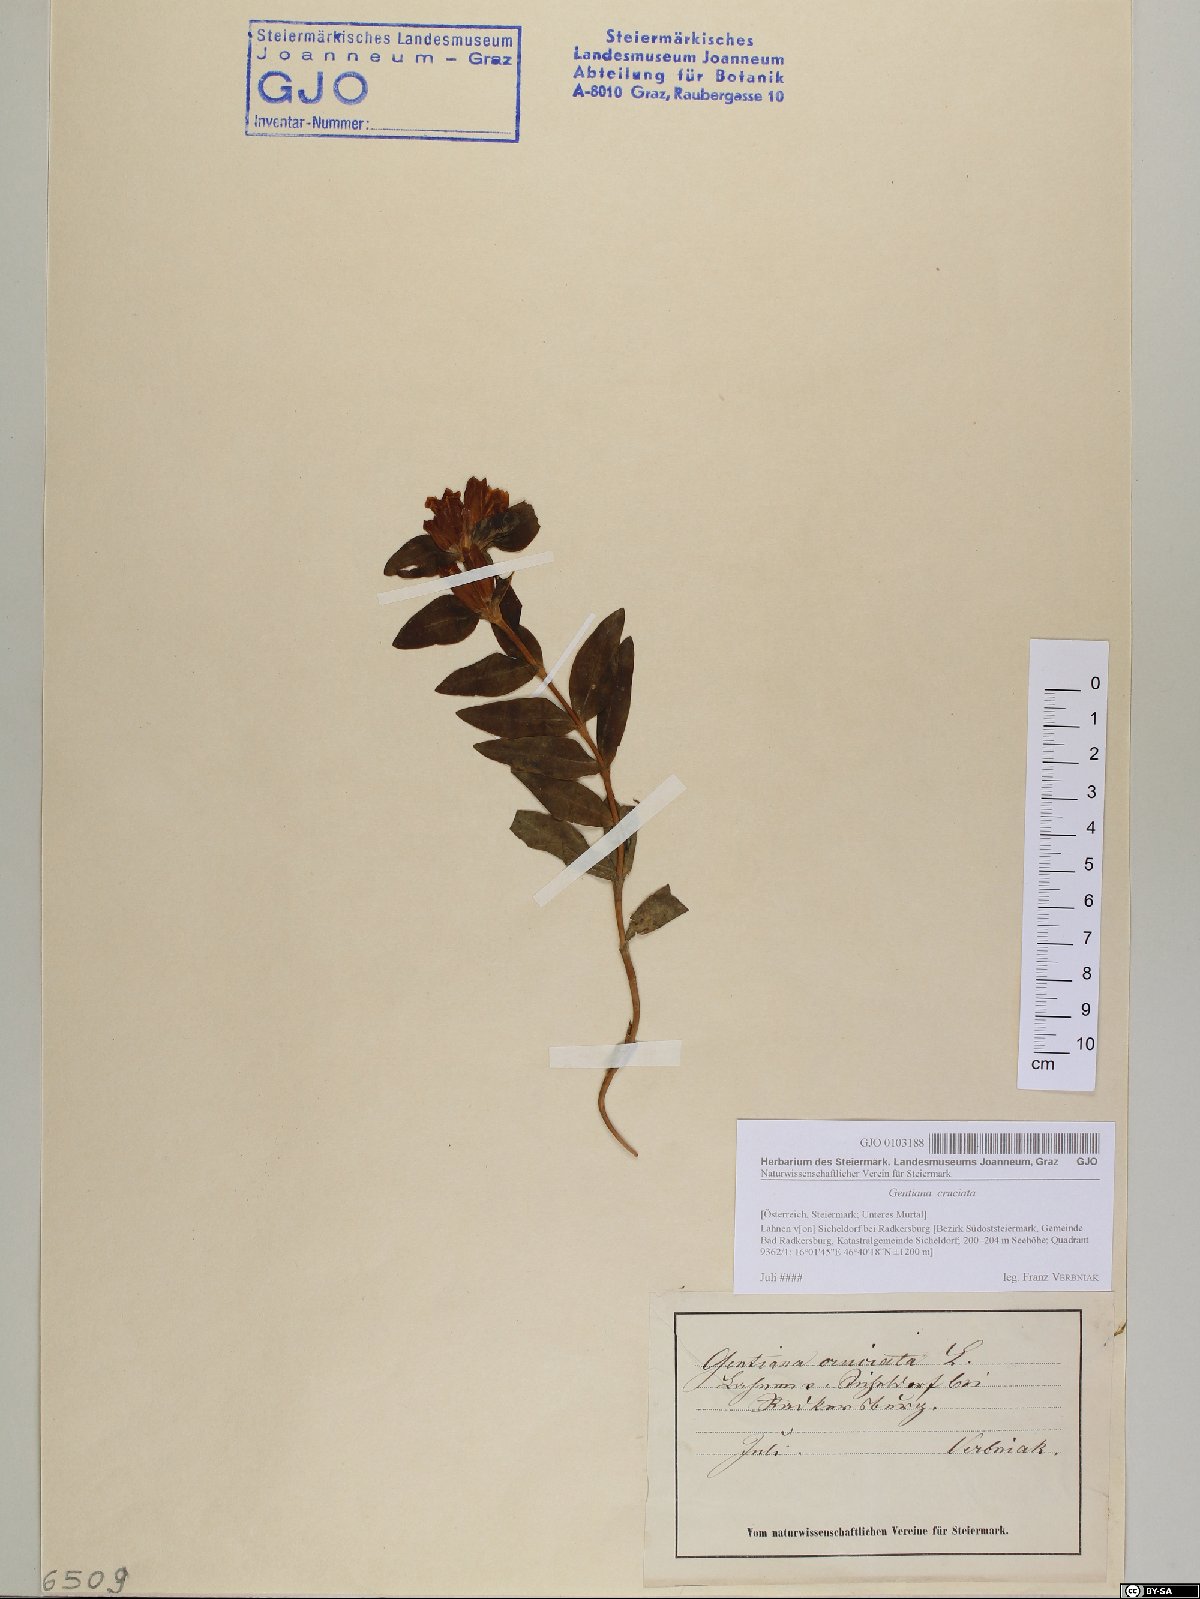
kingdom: Plantae
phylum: Tracheophyta
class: Magnoliopsida
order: Gentianales
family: Gentianaceae
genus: Gentiana
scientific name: Gentiana cruciata
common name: Cross gentian
